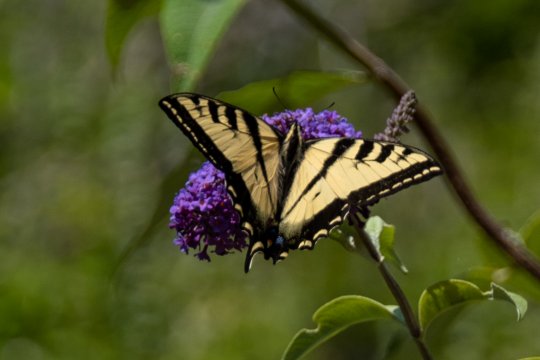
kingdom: Animalia
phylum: Arthropoda
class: Insecta
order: Lepidoptera
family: Papilionidae
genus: Pterourus
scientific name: Pterourus rutulus
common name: Western Tiger Swallowtail
